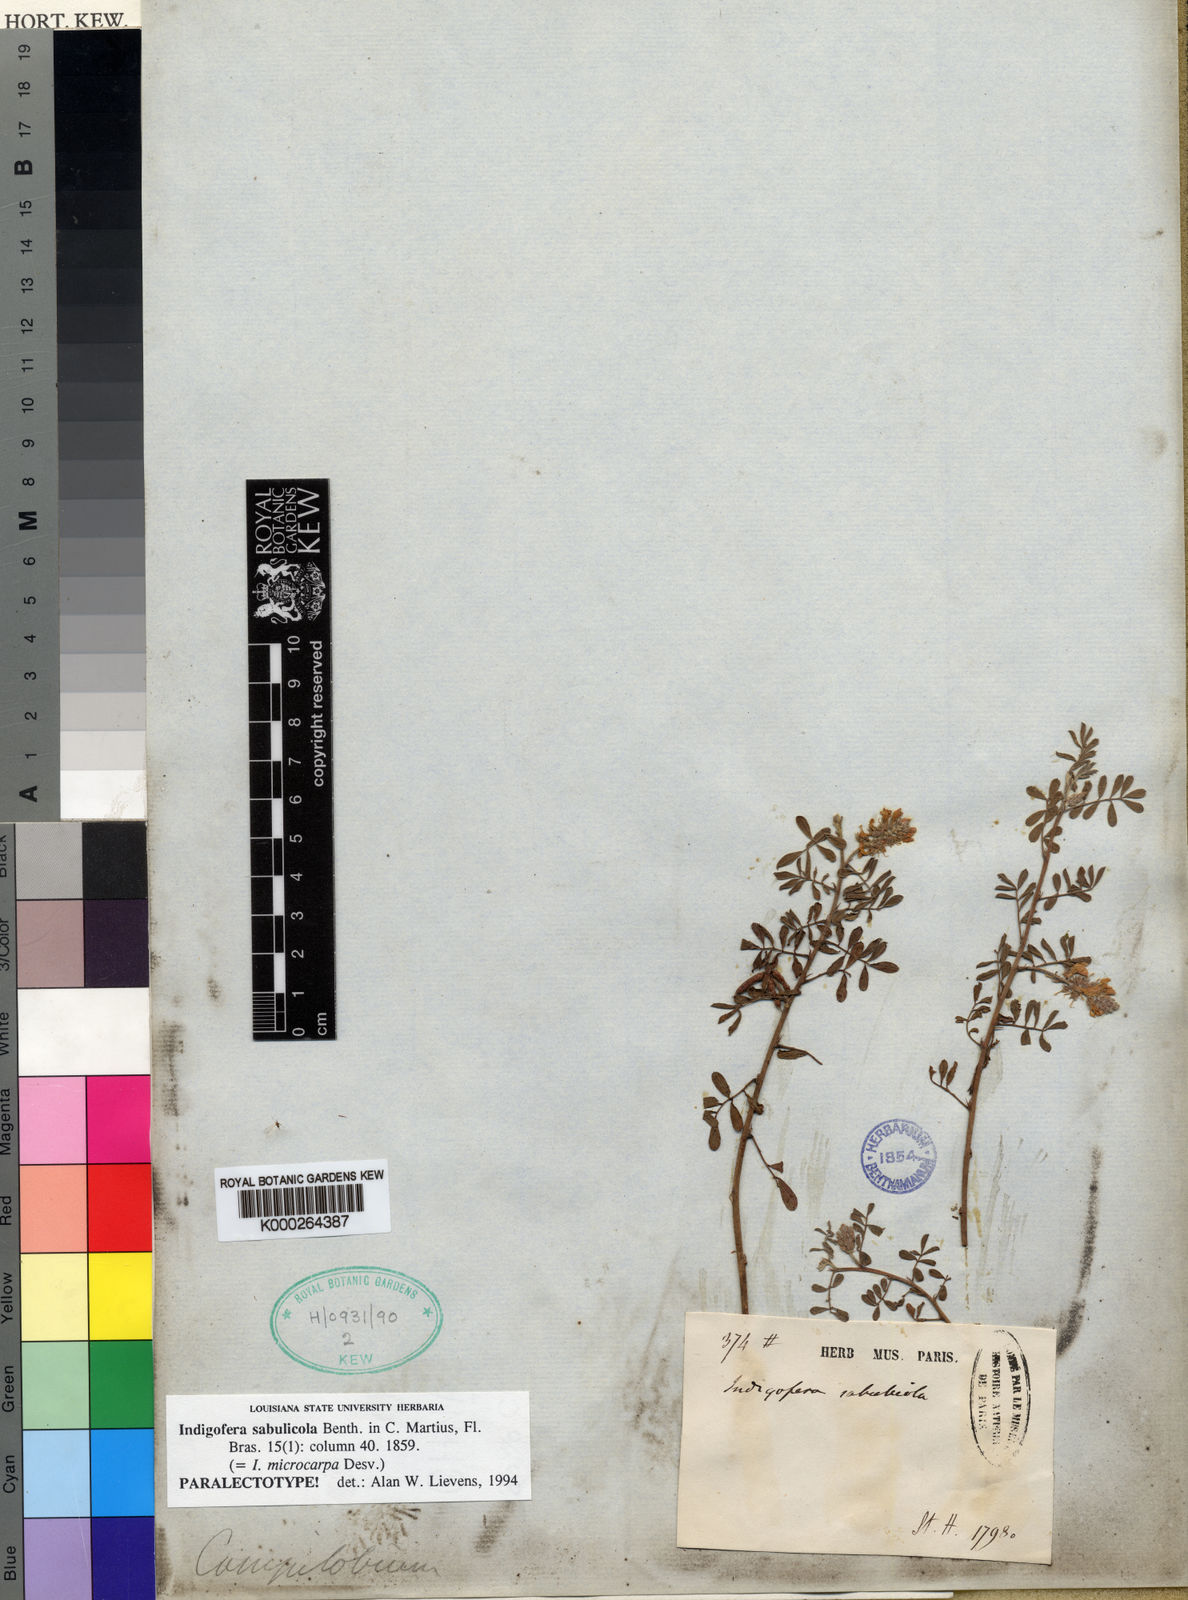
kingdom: Plantae
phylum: Tracheophyta
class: Magnoliopsida
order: Fabales
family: Fabaceae
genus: Indigofera
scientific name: Indigofera
